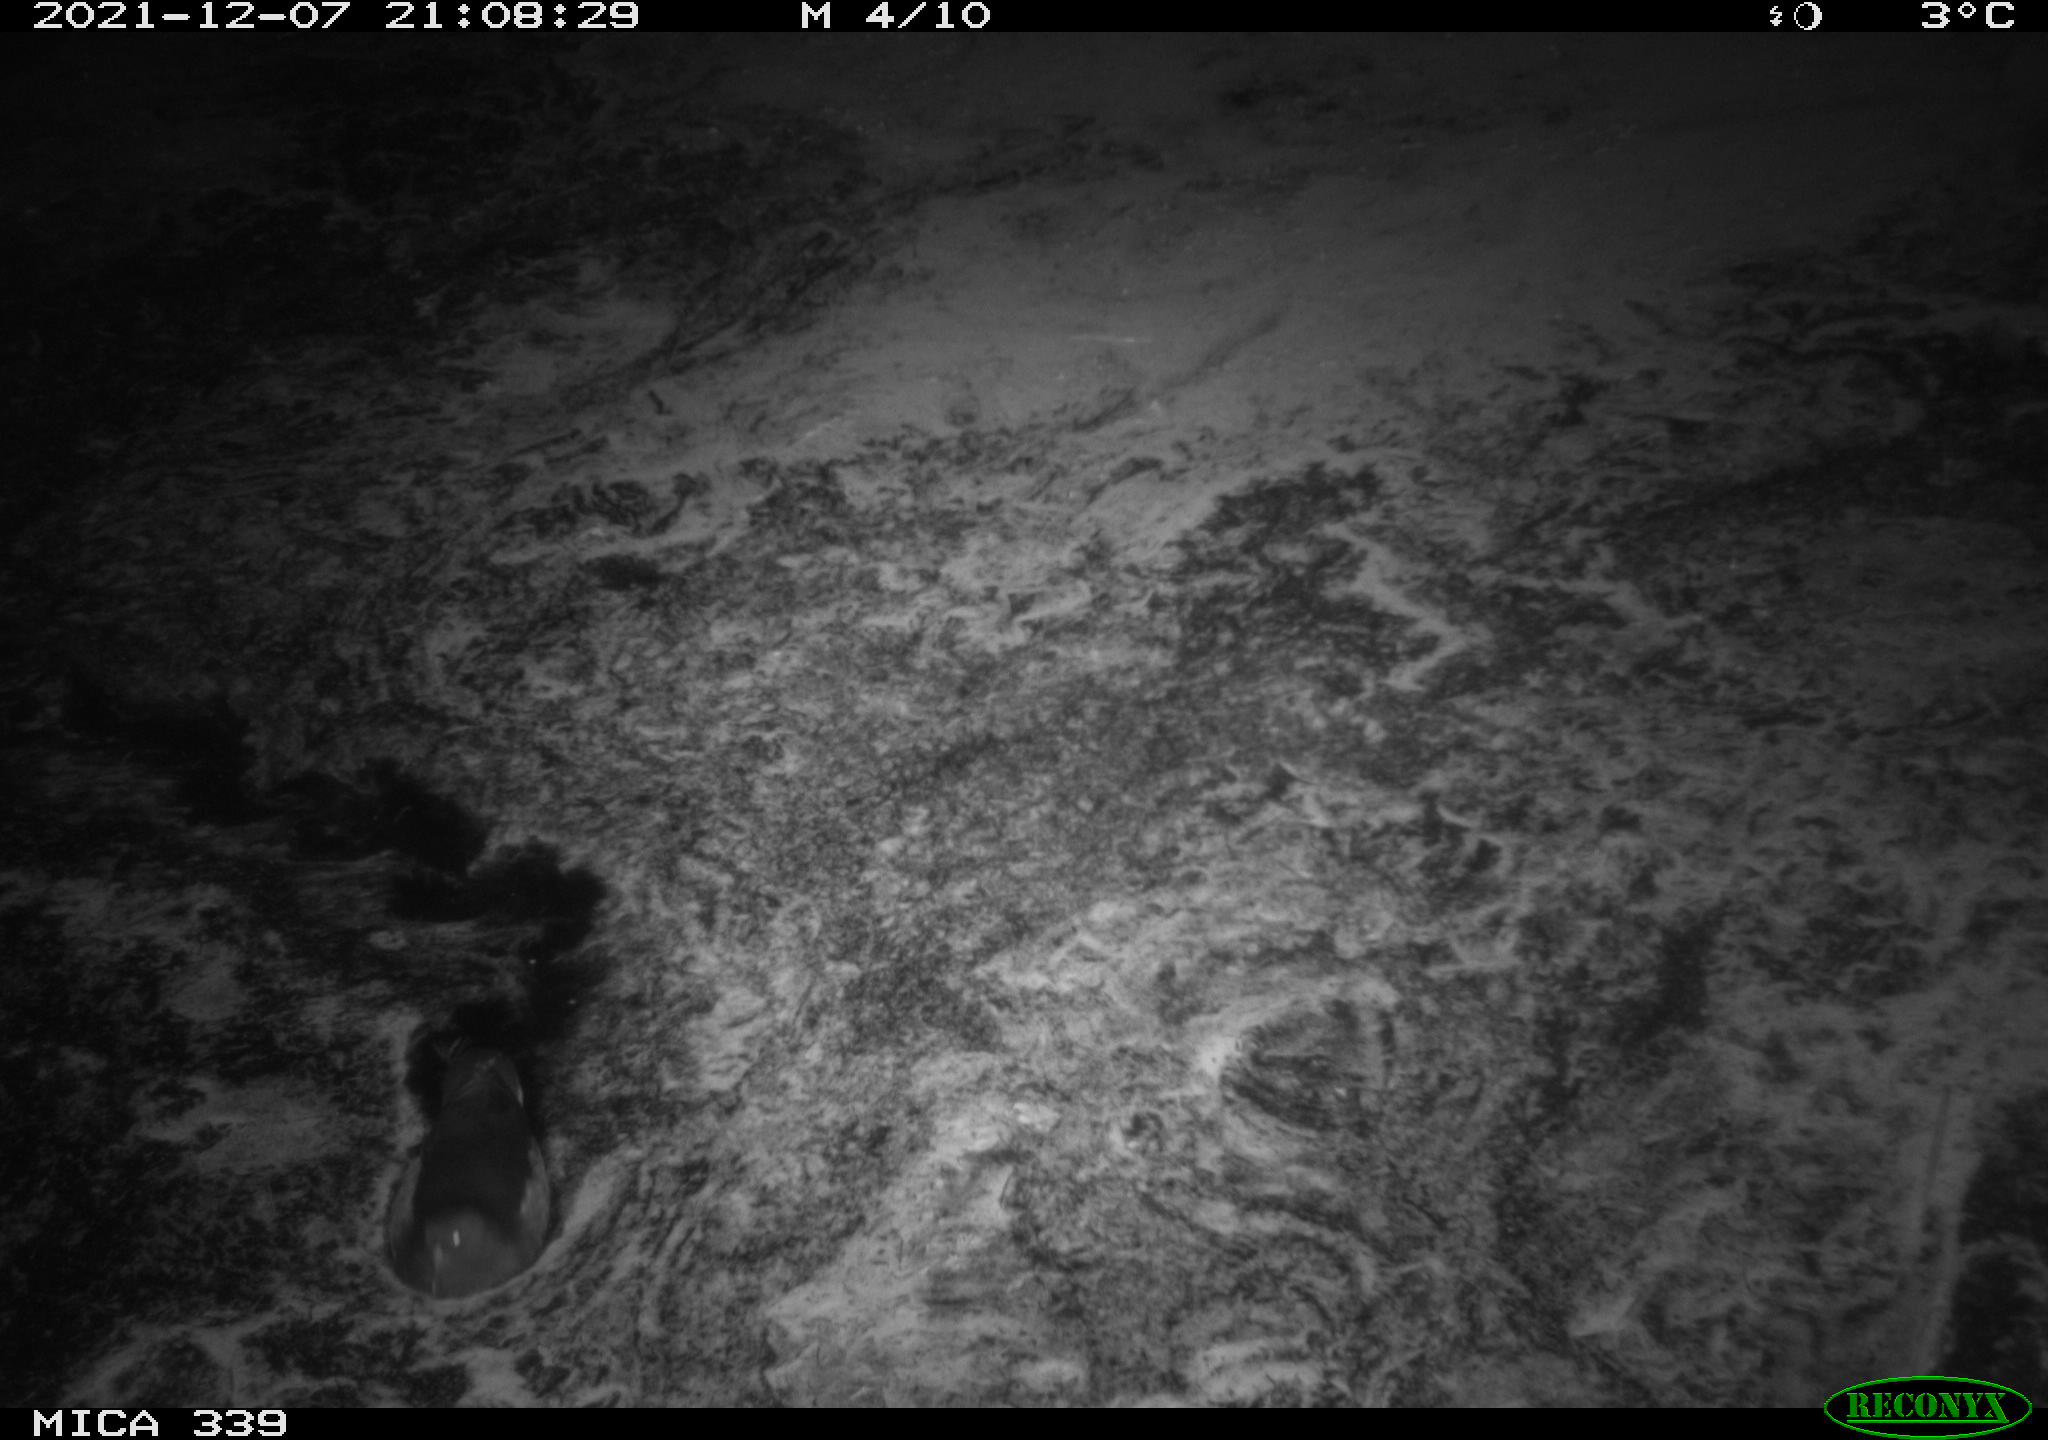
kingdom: Animalia
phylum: Chordata
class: Aves
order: Gruiformes
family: Rallidae
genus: Gallinula
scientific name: Gallinula chloropus
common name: Common moorhen
